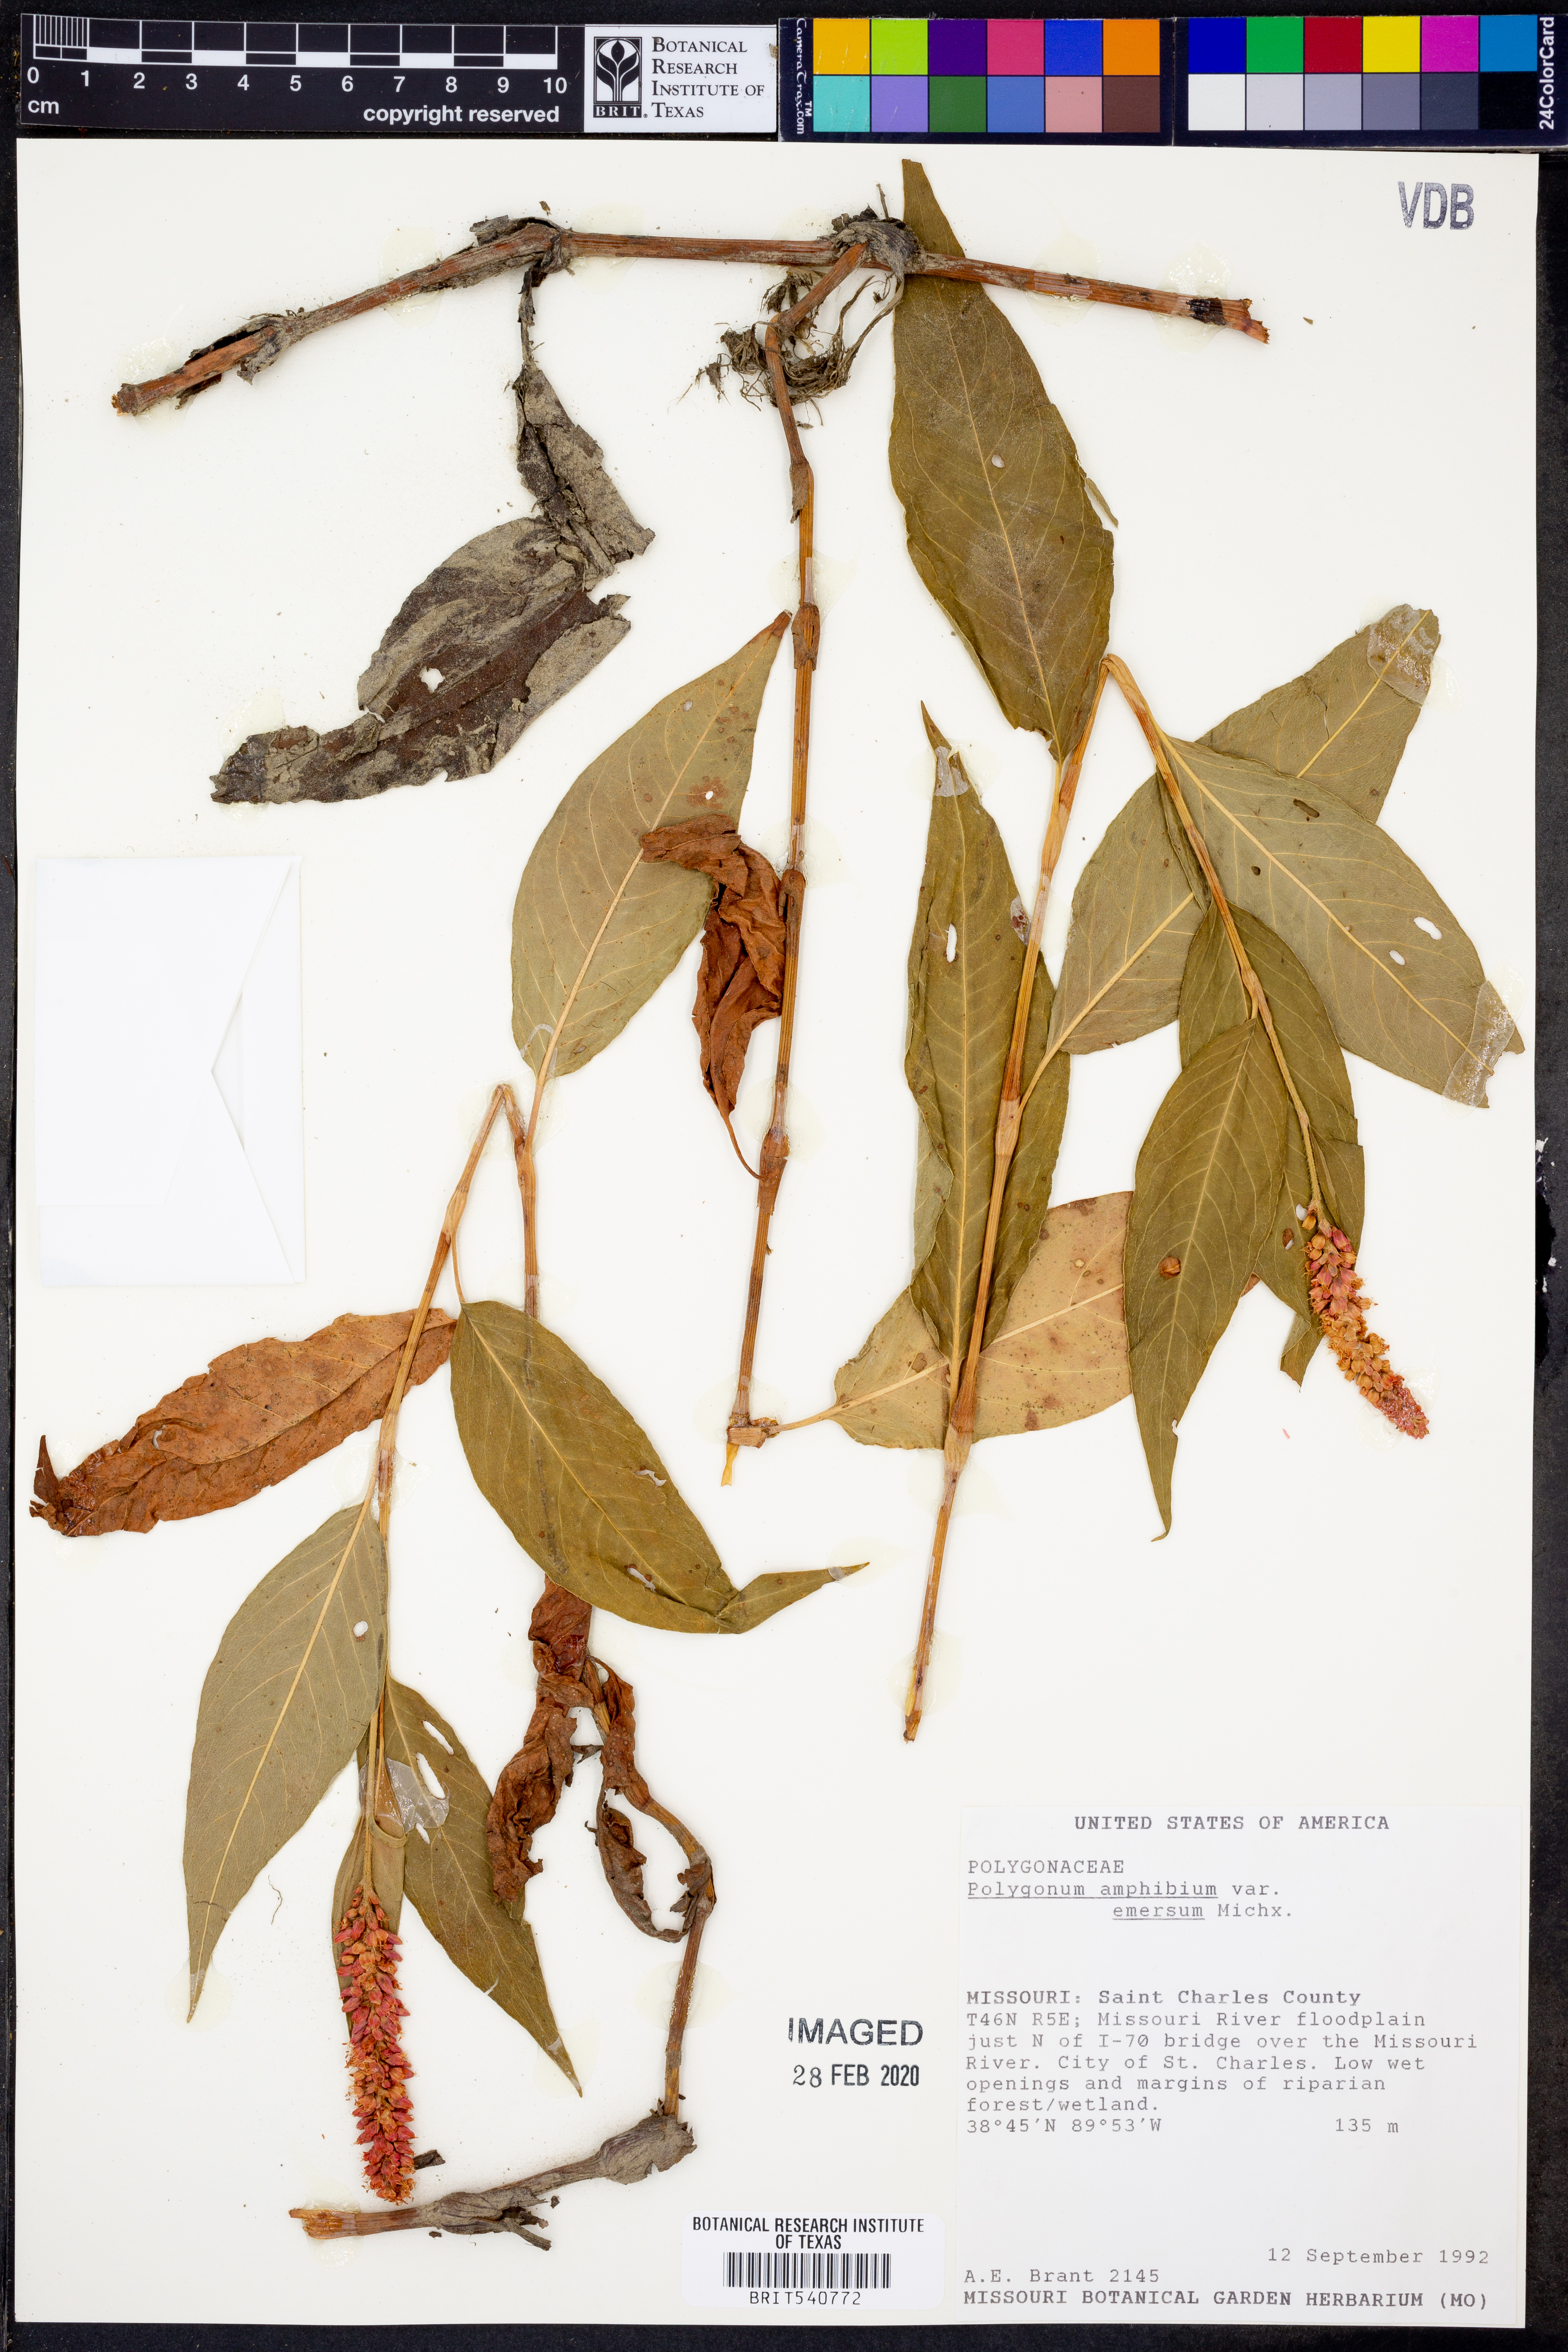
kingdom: Plantae
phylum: Tracheophyta
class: Magnoliopsida
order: Caryophyllales
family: Polygonaceae
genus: Persicaria
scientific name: Persicaria amphibia
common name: Amphibious bistort
